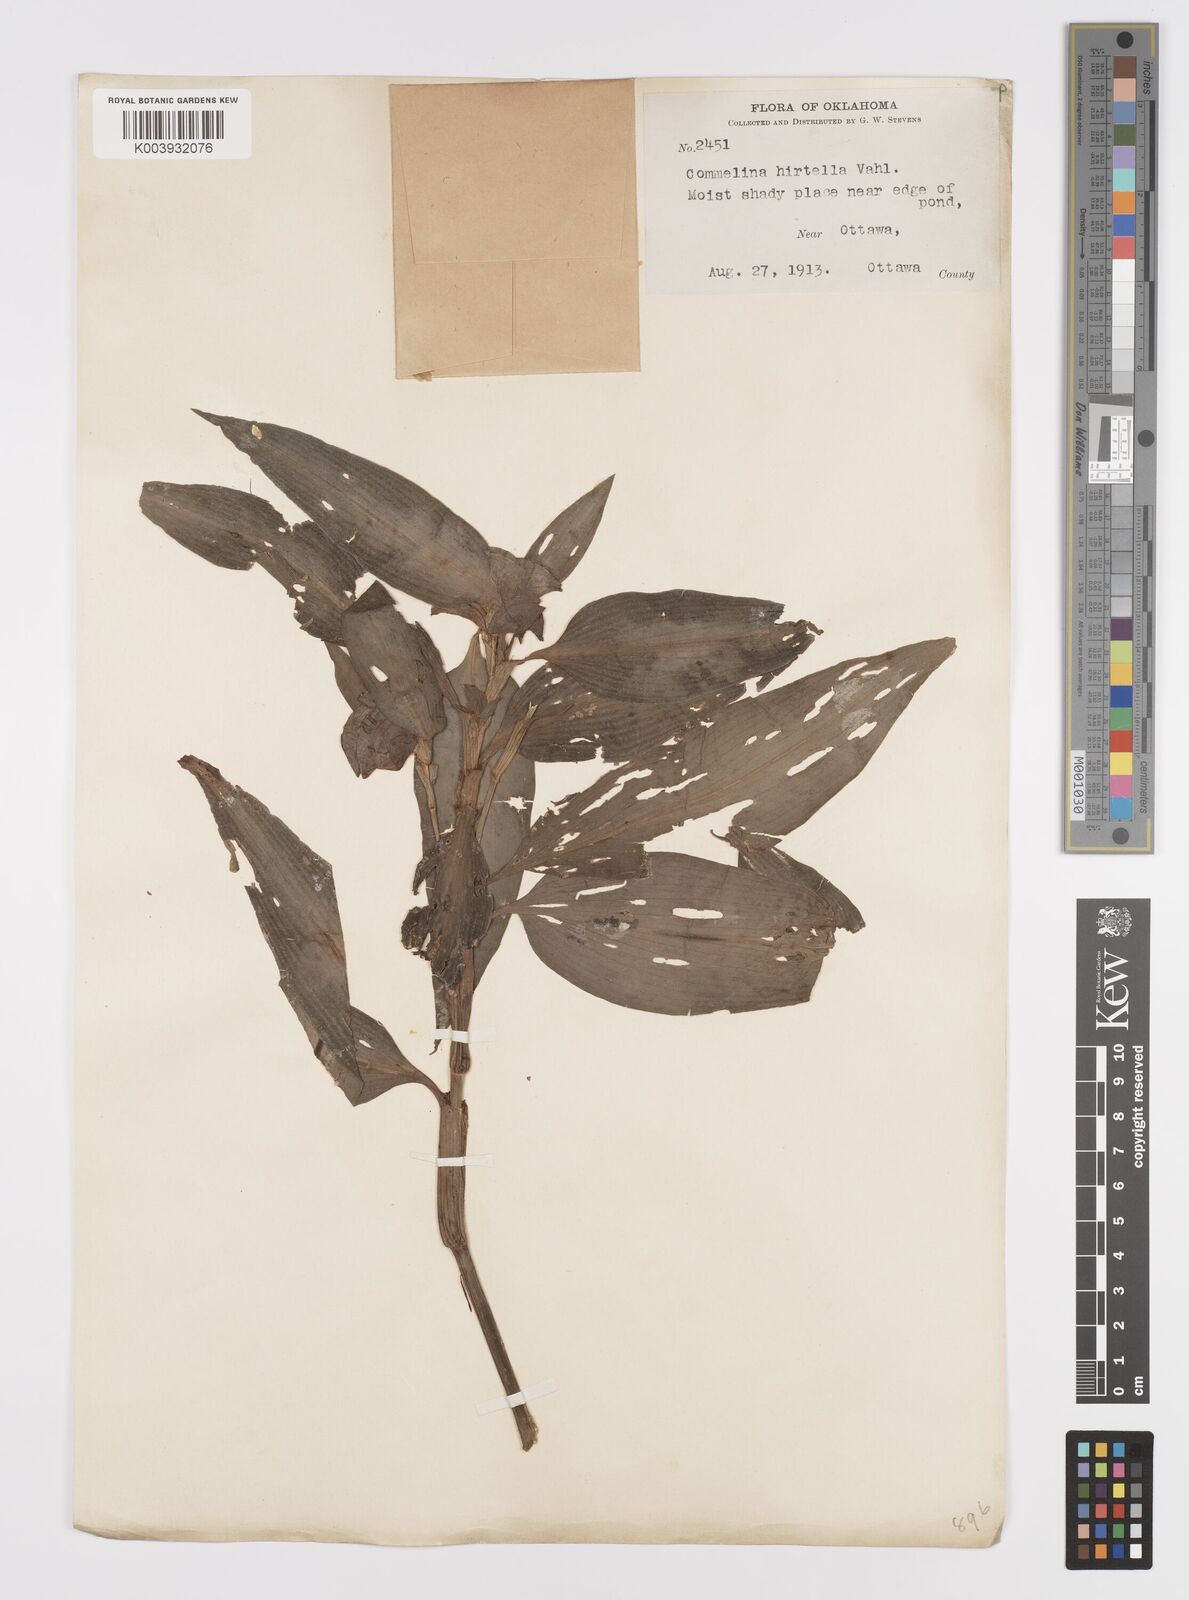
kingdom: Plantae
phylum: Tracheophyta
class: Liliopsida
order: Commelinales
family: Commelinaceae
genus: Commelina
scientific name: Commelina virginica
